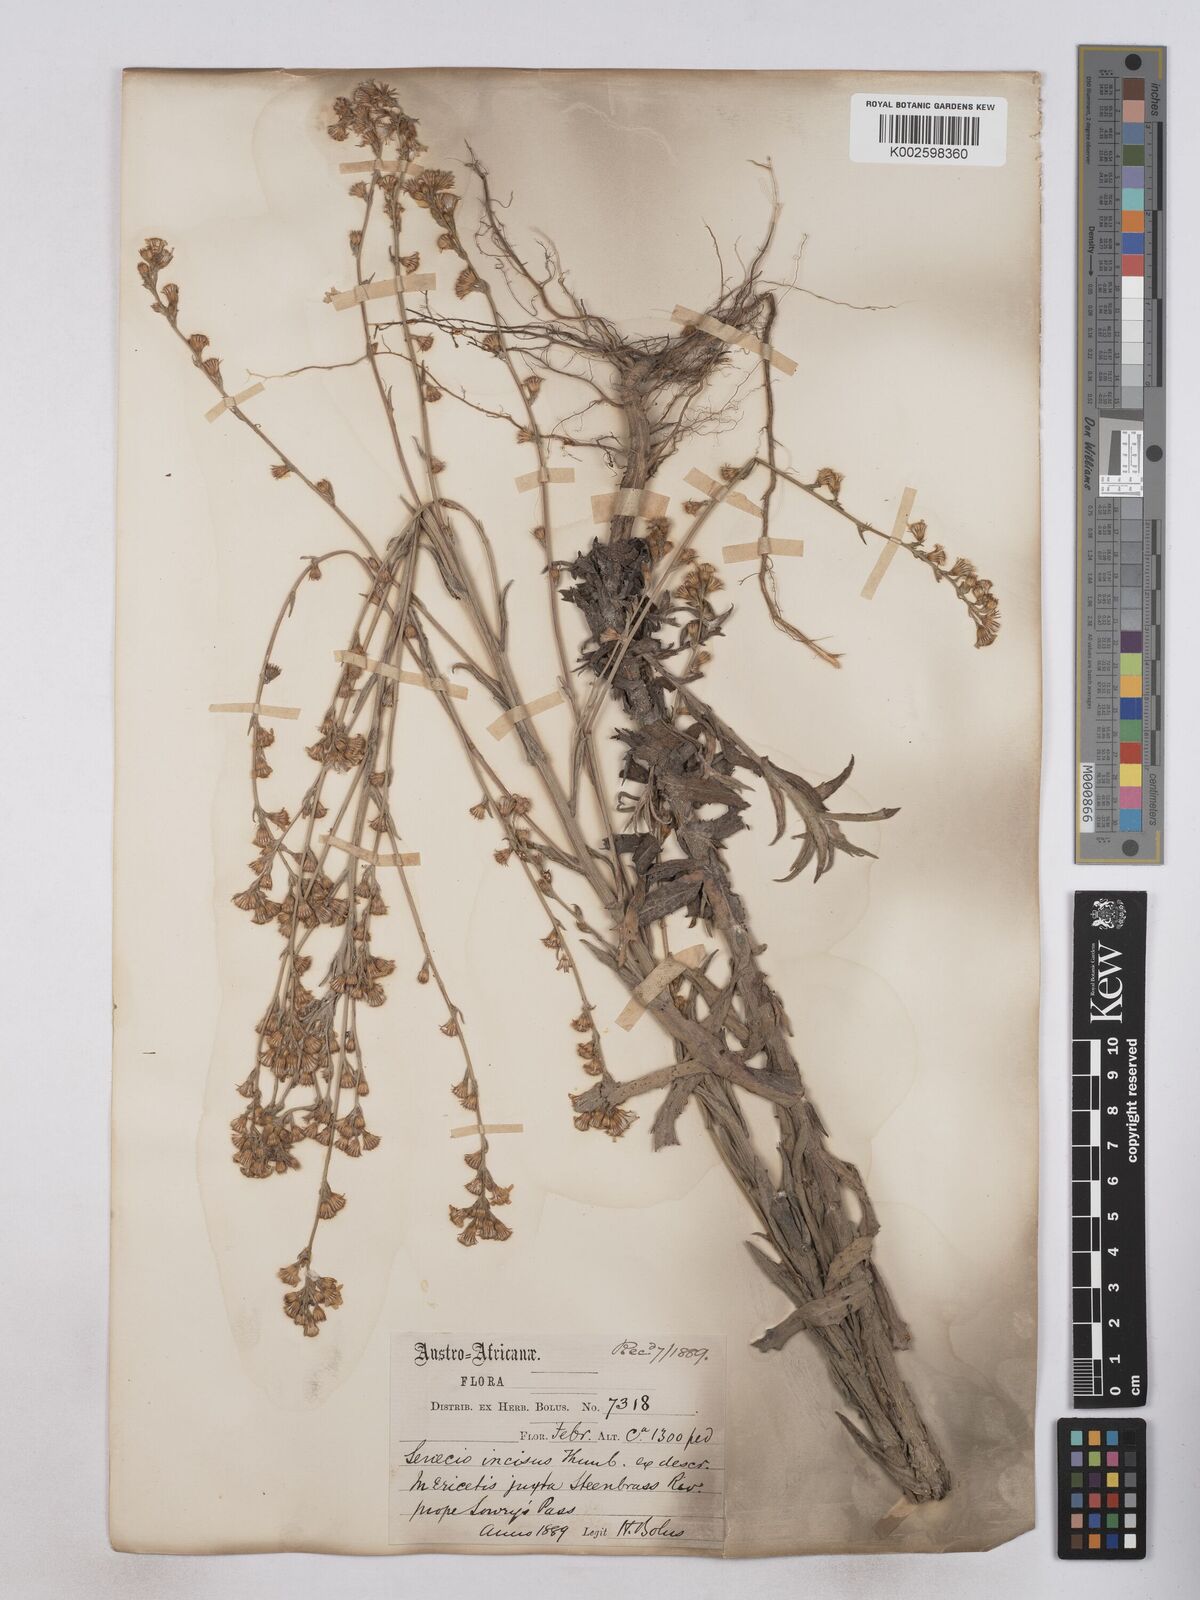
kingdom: Plantae
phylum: Tracheophyta
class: Magnoliopsida
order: Asterales
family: Asteraceae
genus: Senecio
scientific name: Senecio phalachrolaenus
